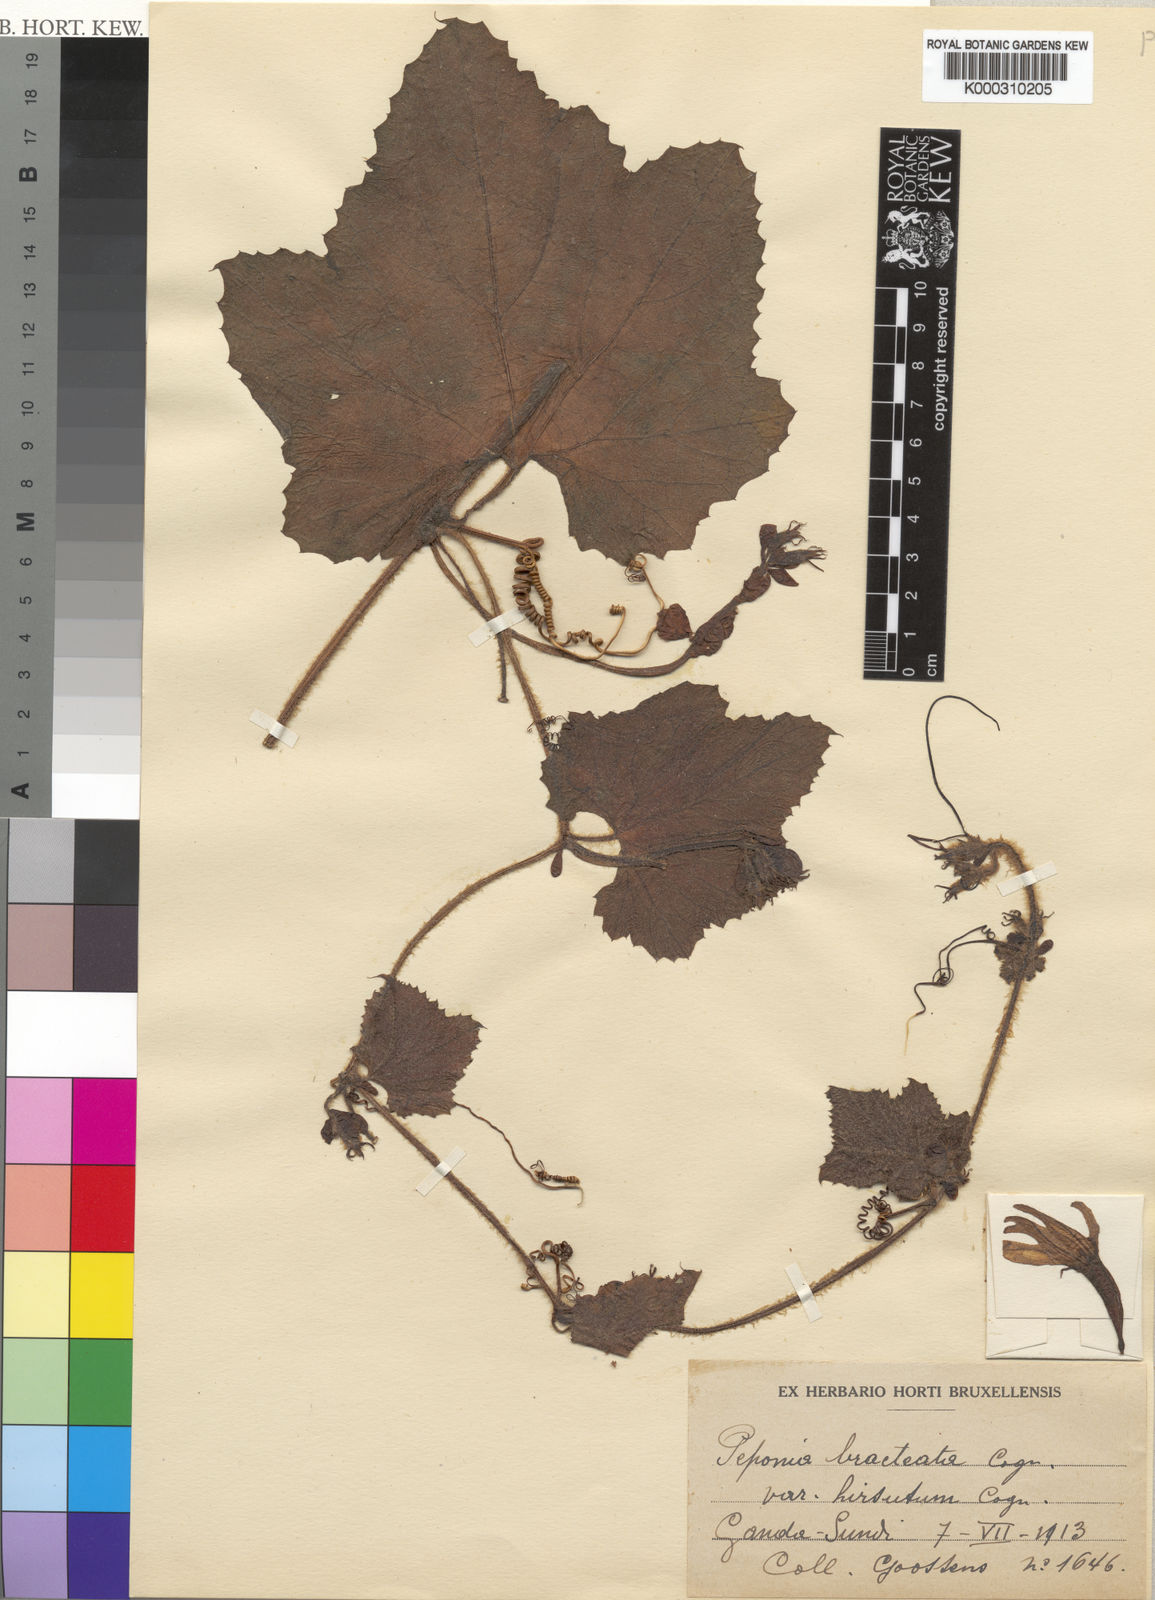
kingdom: Plantae
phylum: Tracheophyta
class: Magnoliopsida
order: Cucurbitales
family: Cucurbitaceae
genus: Peponium
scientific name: Peponium vogelii
